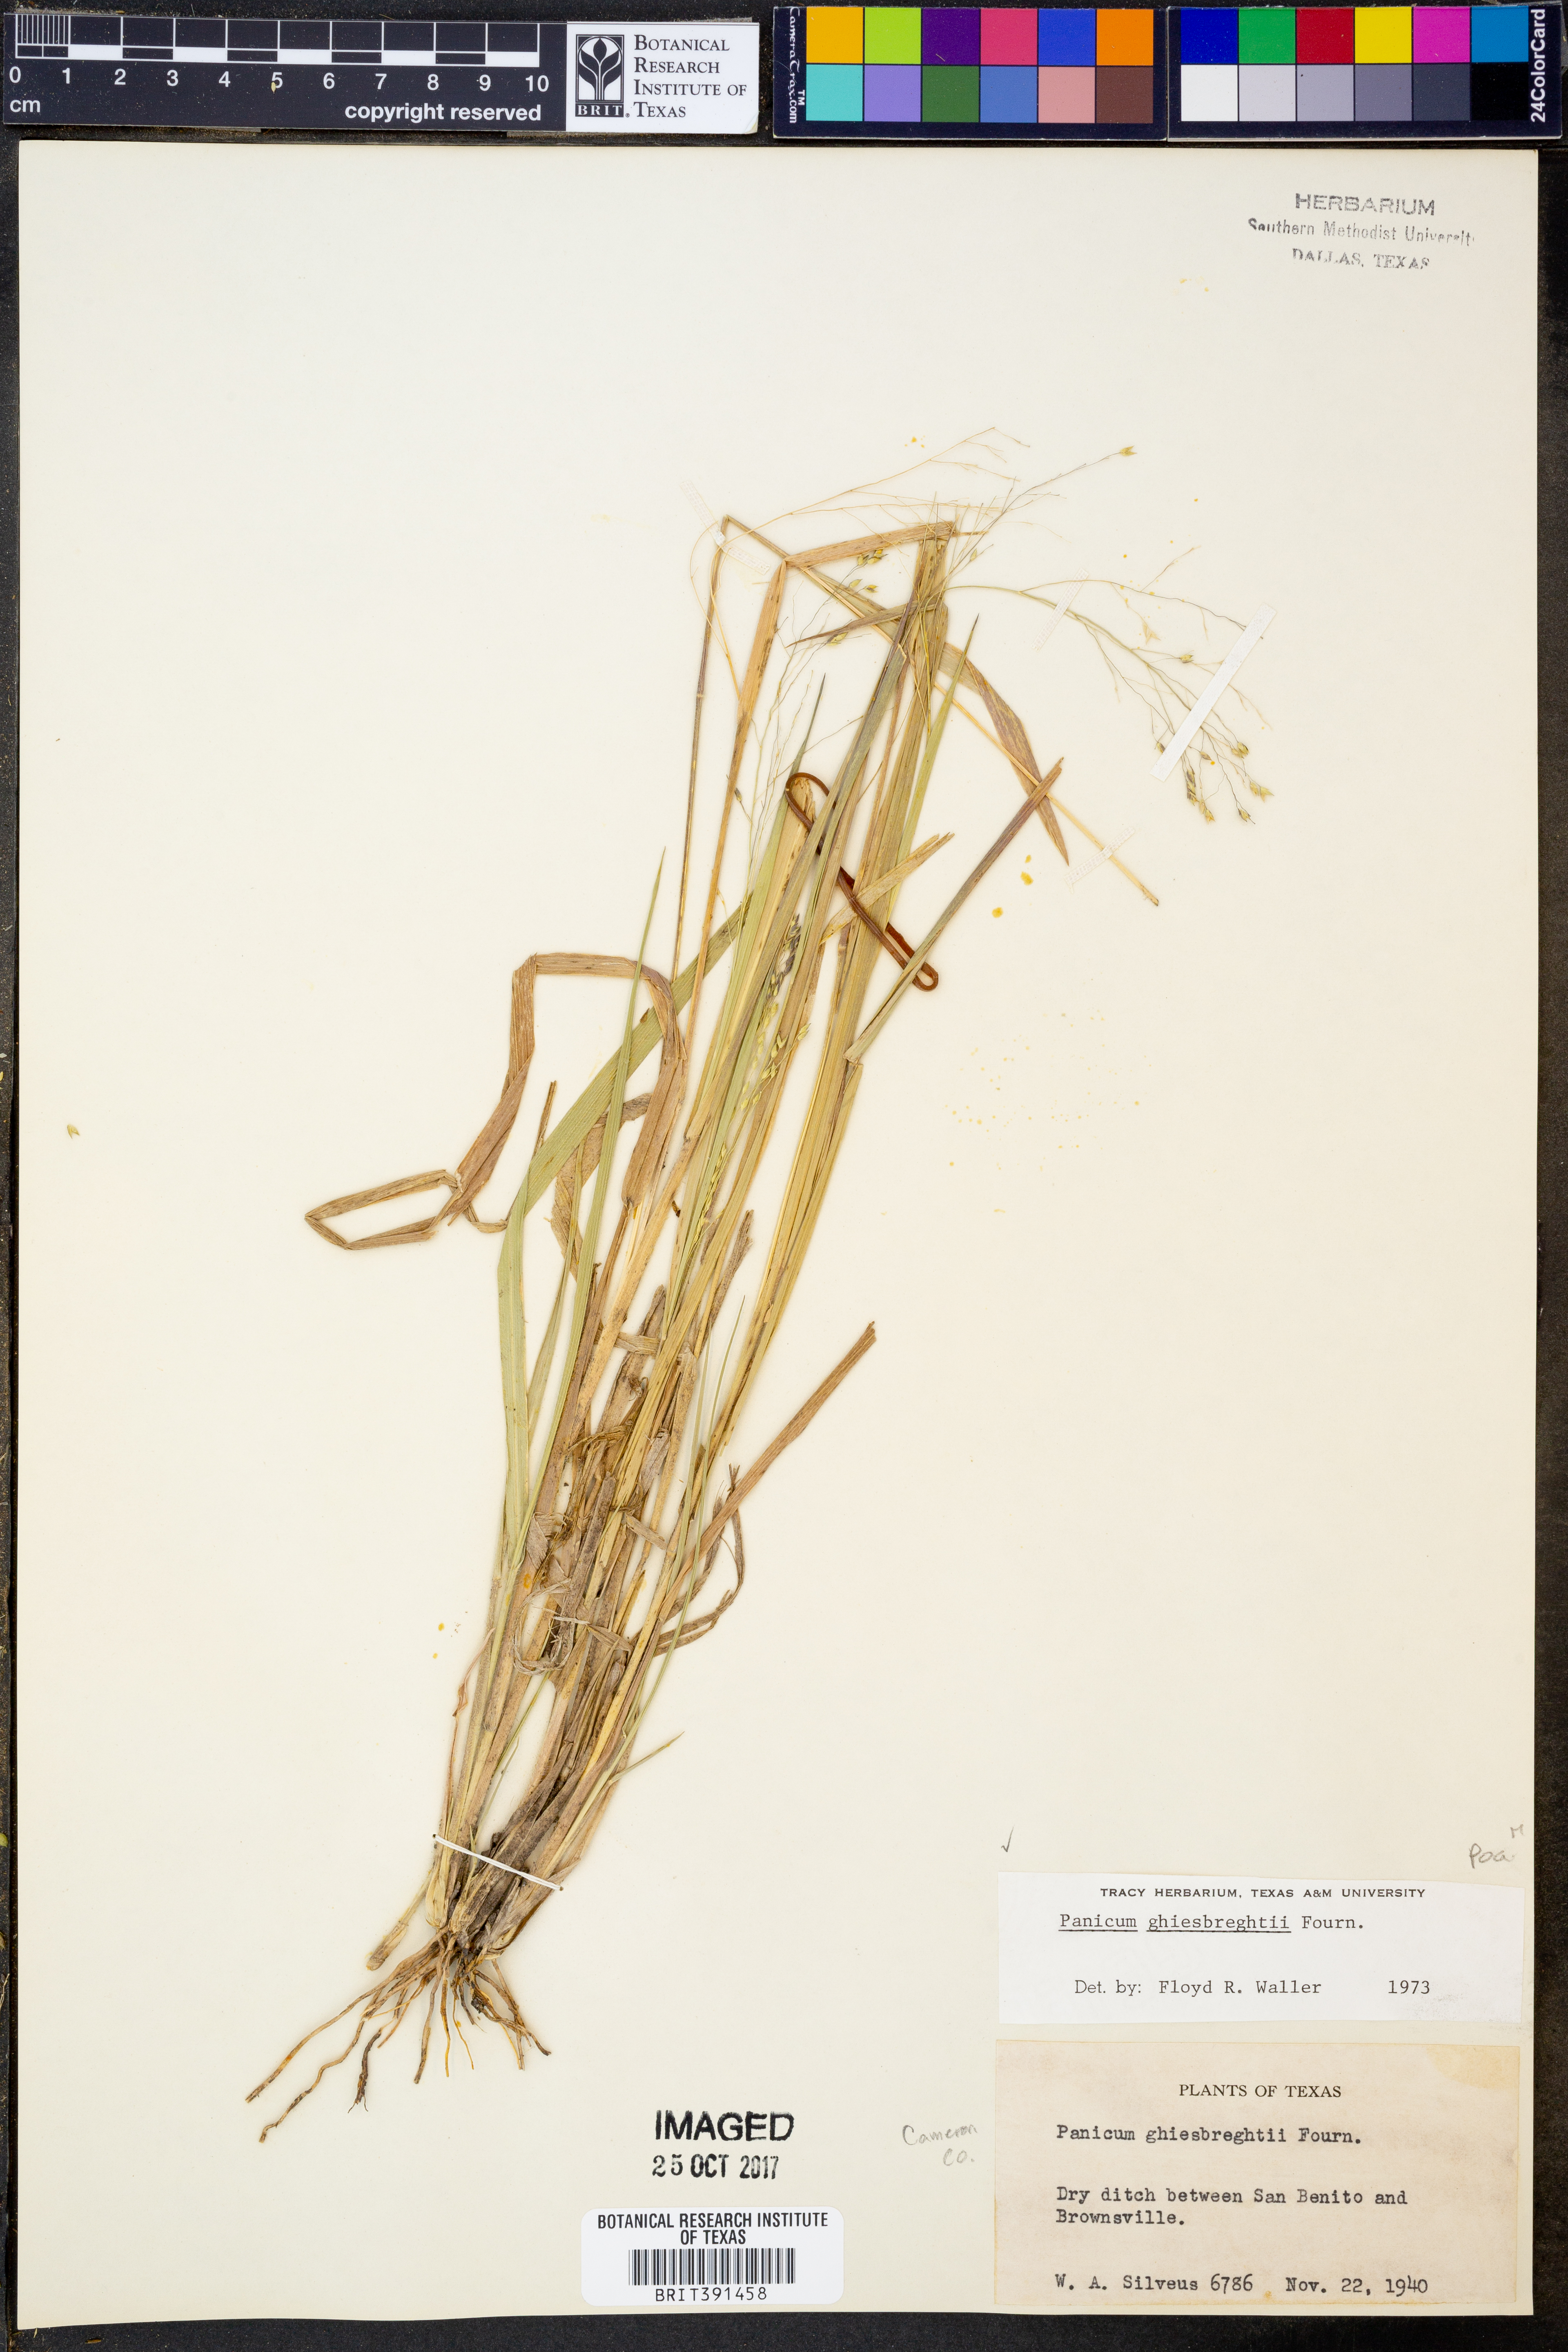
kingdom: Plantae
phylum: Tracheophyta
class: Liliopsida
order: Poales
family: Poaceae
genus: Panicum
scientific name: Panicum ghiesbreghtii
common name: Ghiesbreght's witchgrass
